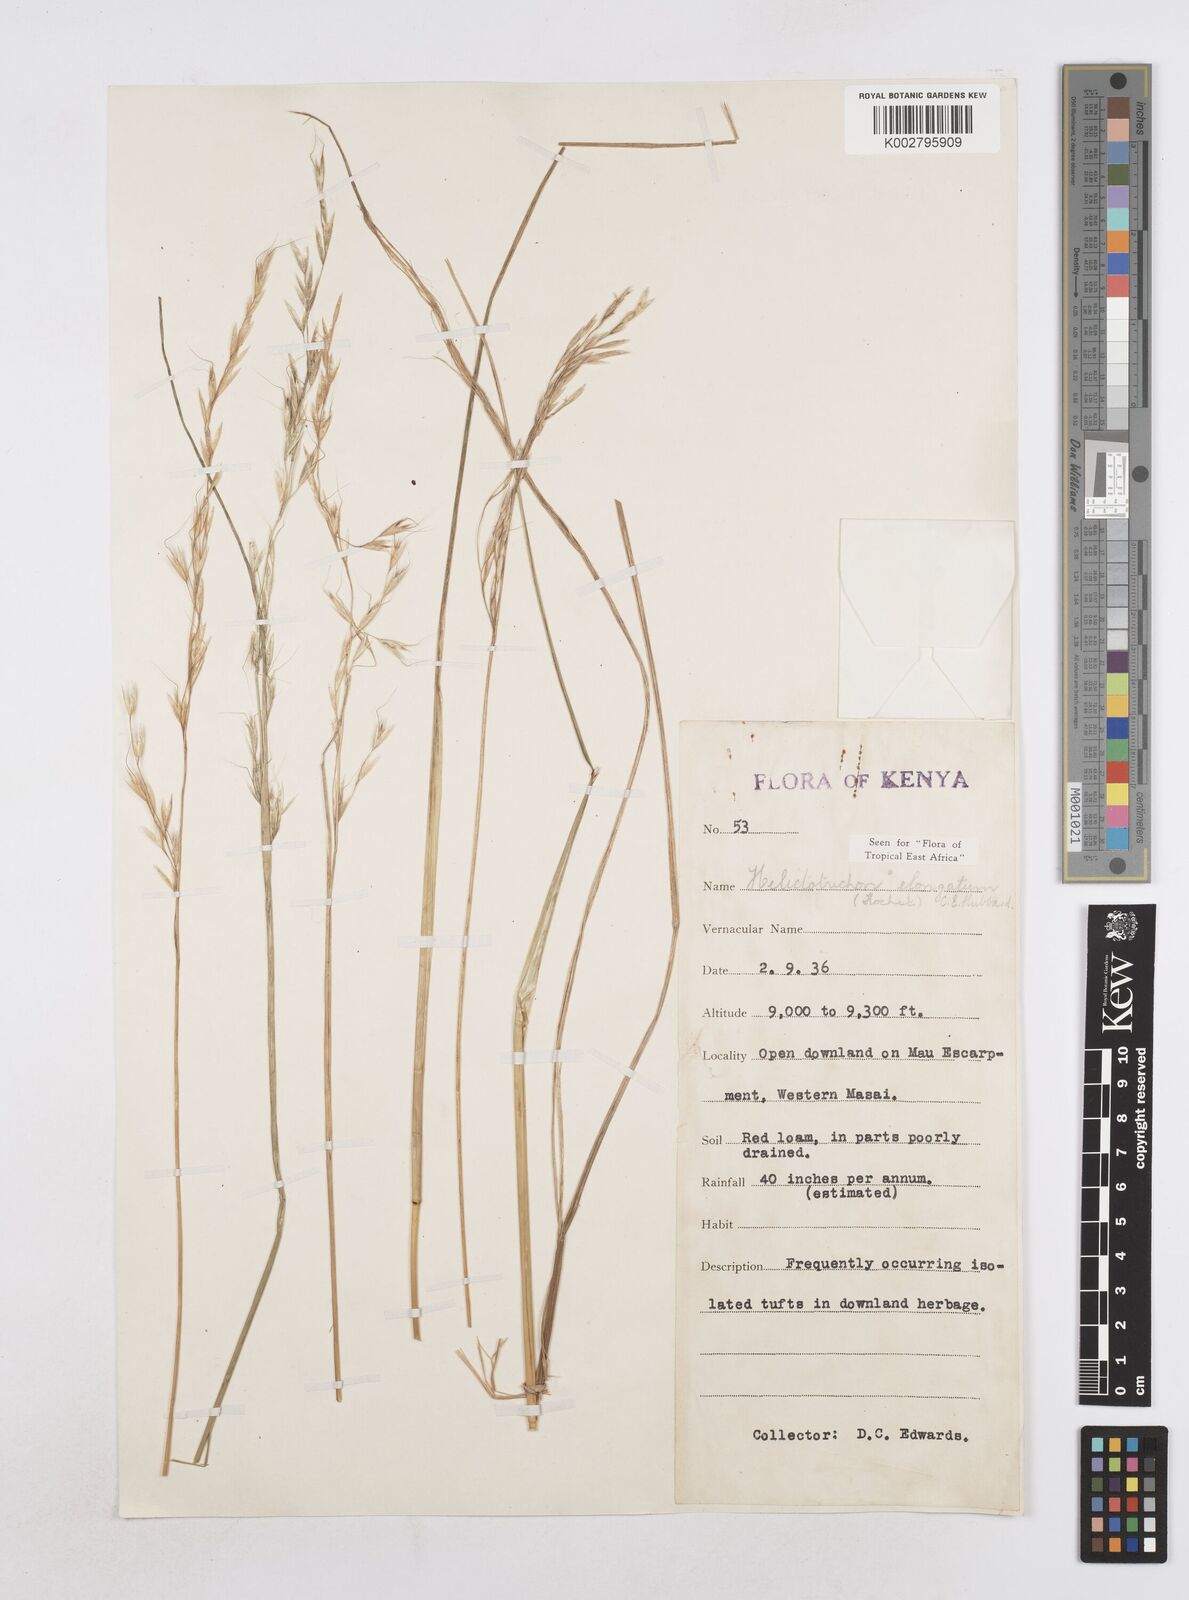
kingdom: Plantae
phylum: Tracheophyta
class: Liliopsida
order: Poales
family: Poaceae
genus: Trisetopsis
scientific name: Trisetopsis elongata
